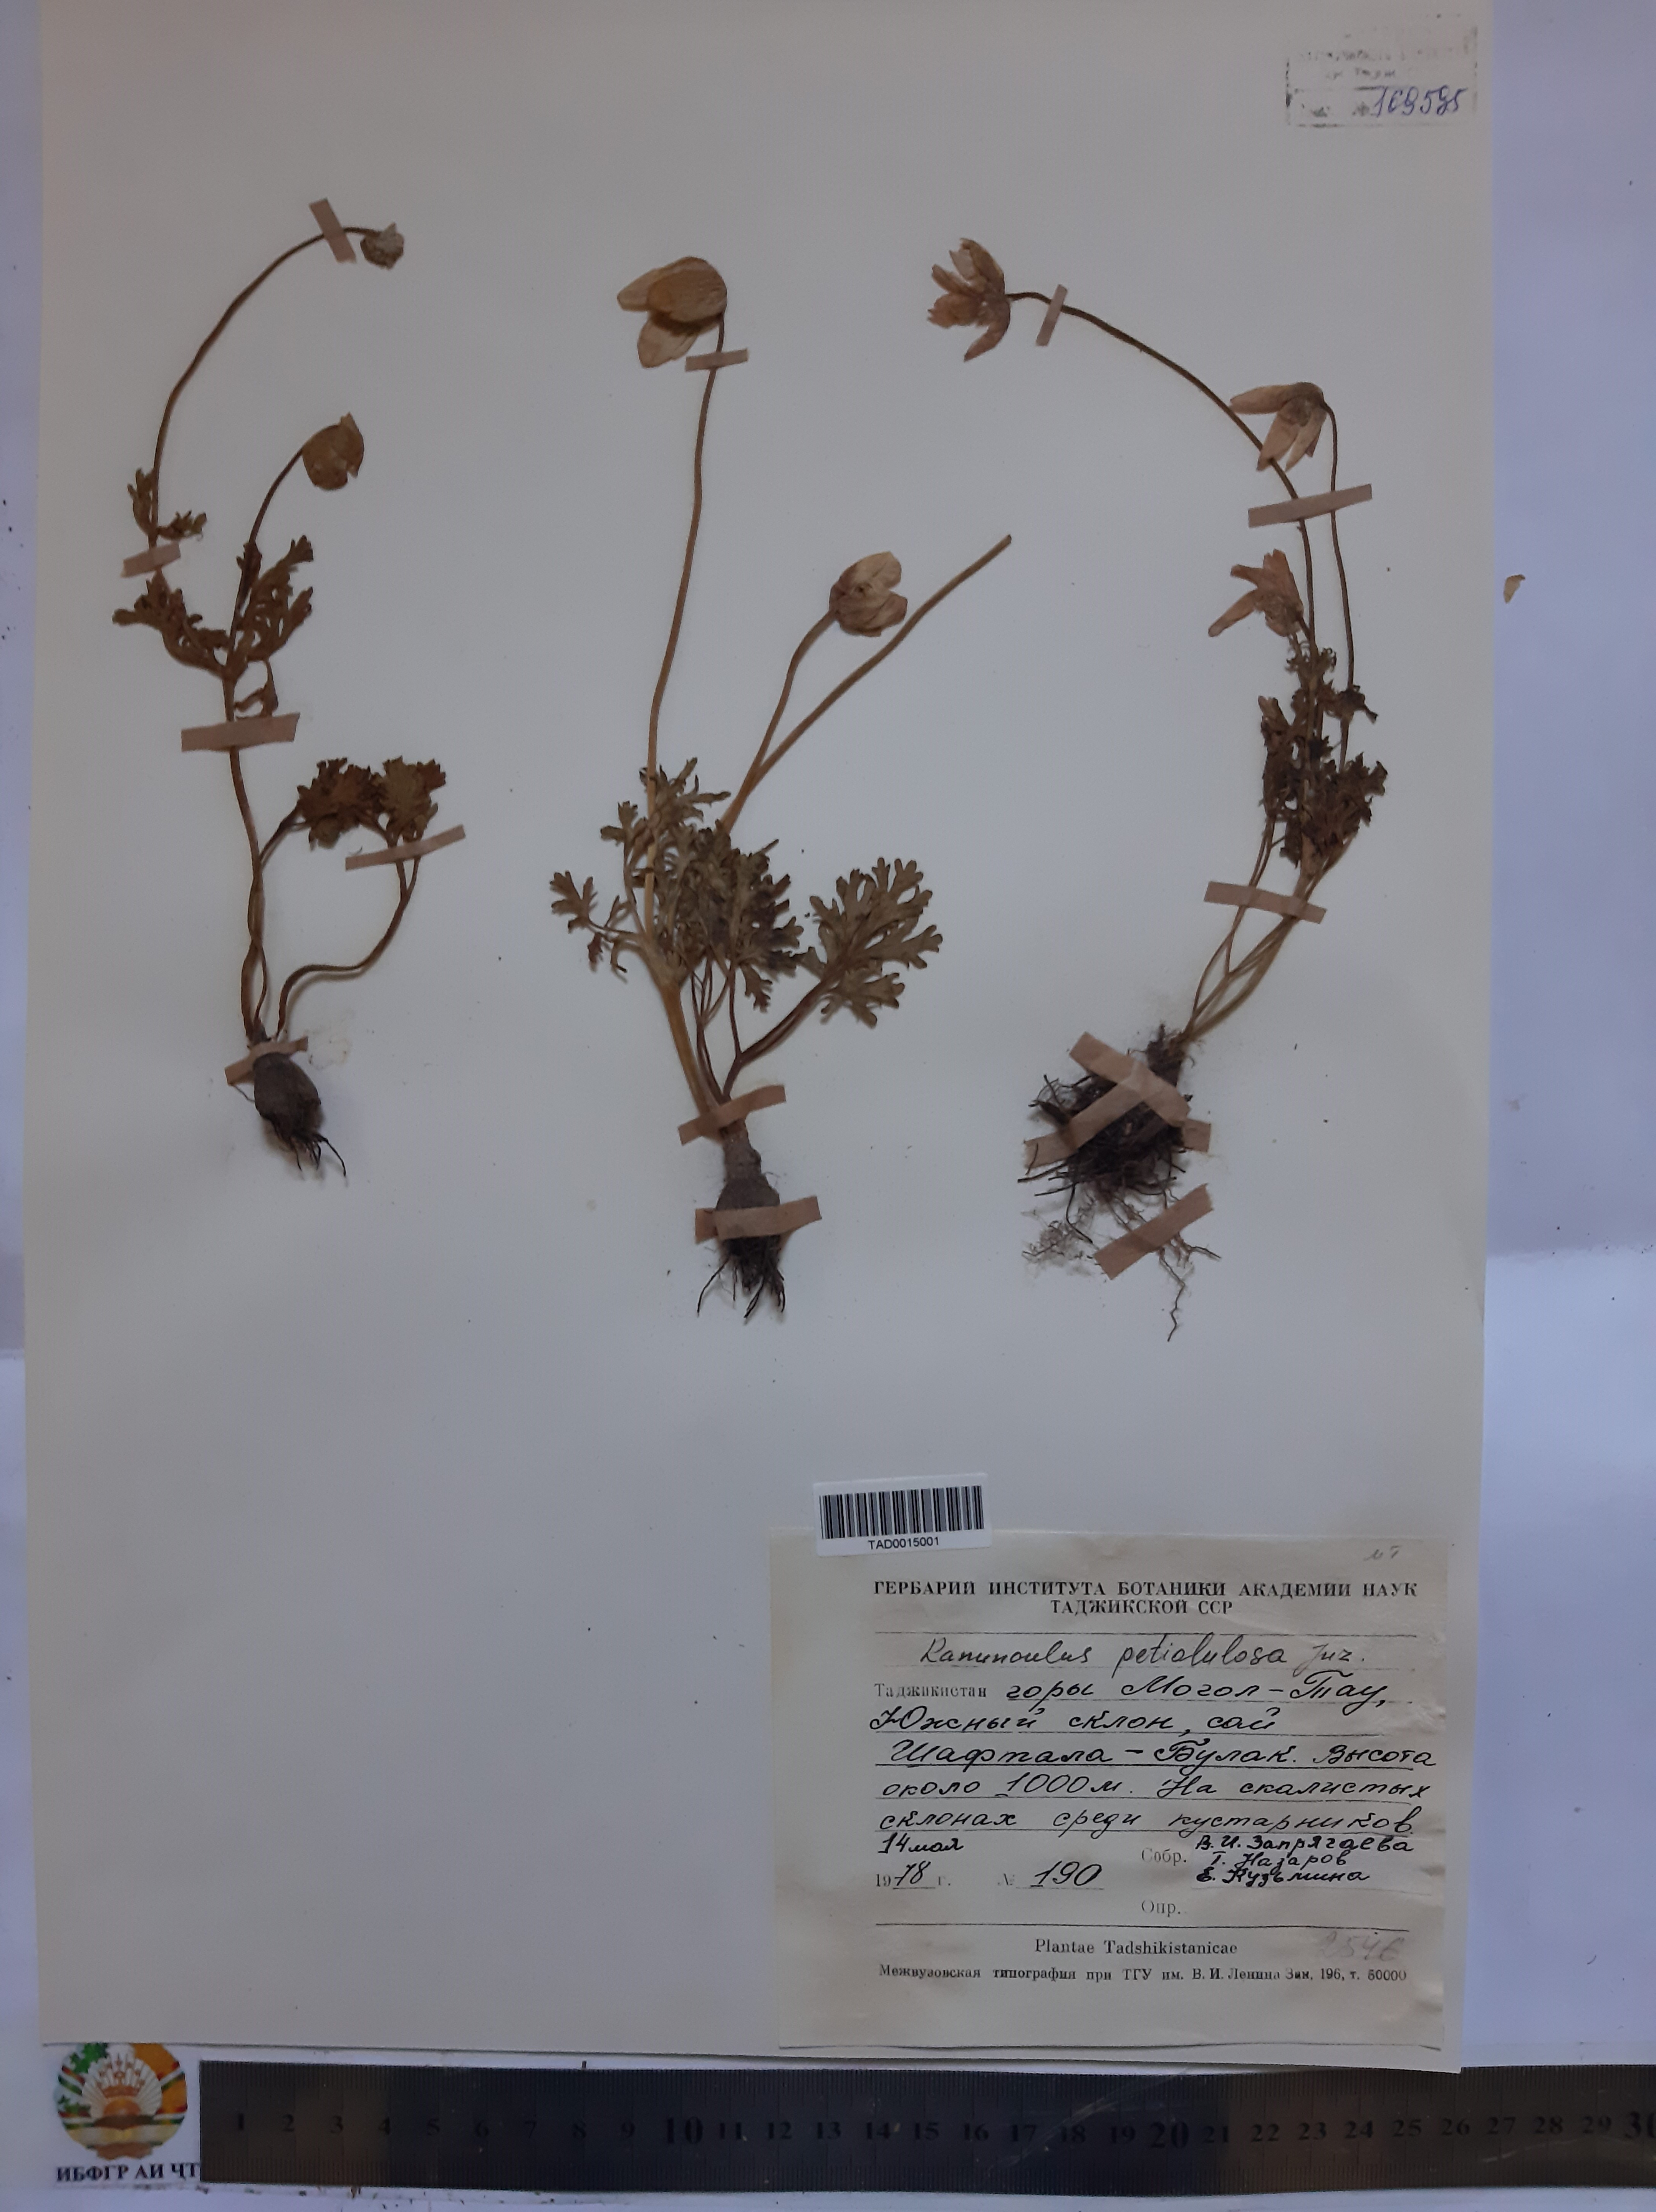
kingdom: Plantae
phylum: Tracheophyta
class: Magnoliopsida
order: Ranunculales
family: Ranunculaceae
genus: Ranunculus
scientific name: Ranunculus bulbosus
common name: Bulbous buttercup
